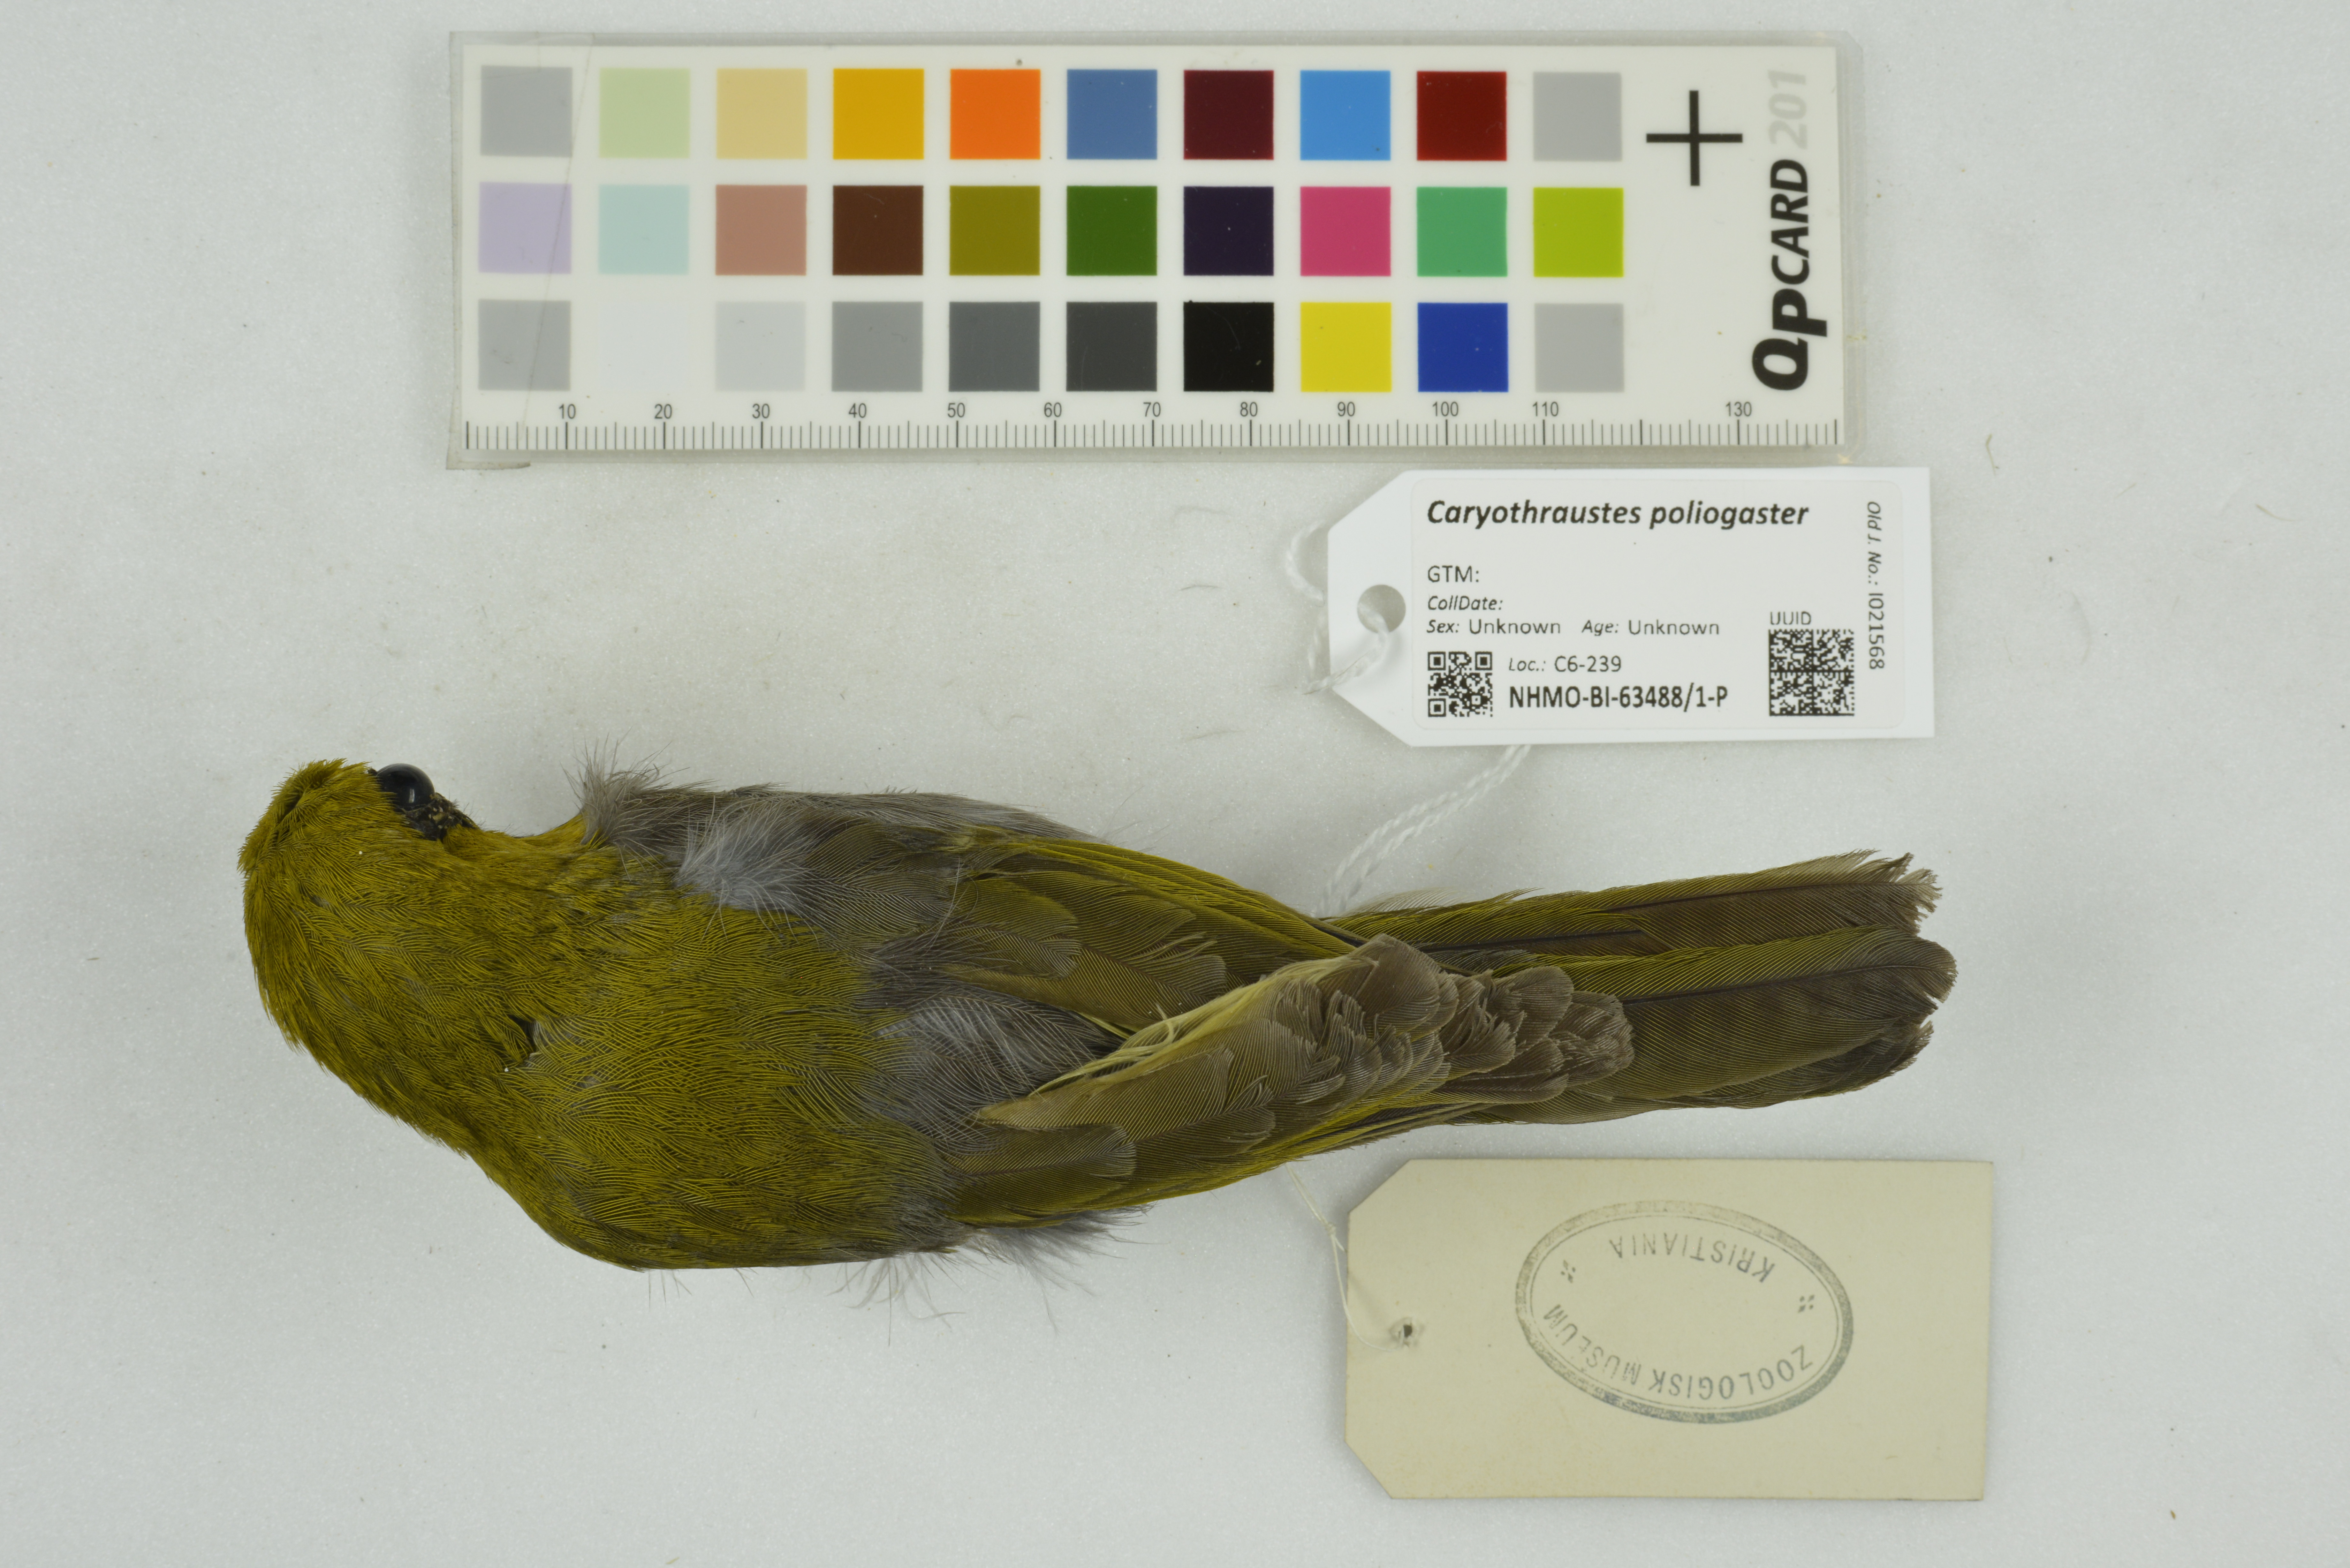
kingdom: Animalia
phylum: Chordata
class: Aves
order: Passeriformes
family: Cardinalidae
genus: Caryothraustes
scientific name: Caryothraustes poliogaster
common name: Black-faced grosbeak
